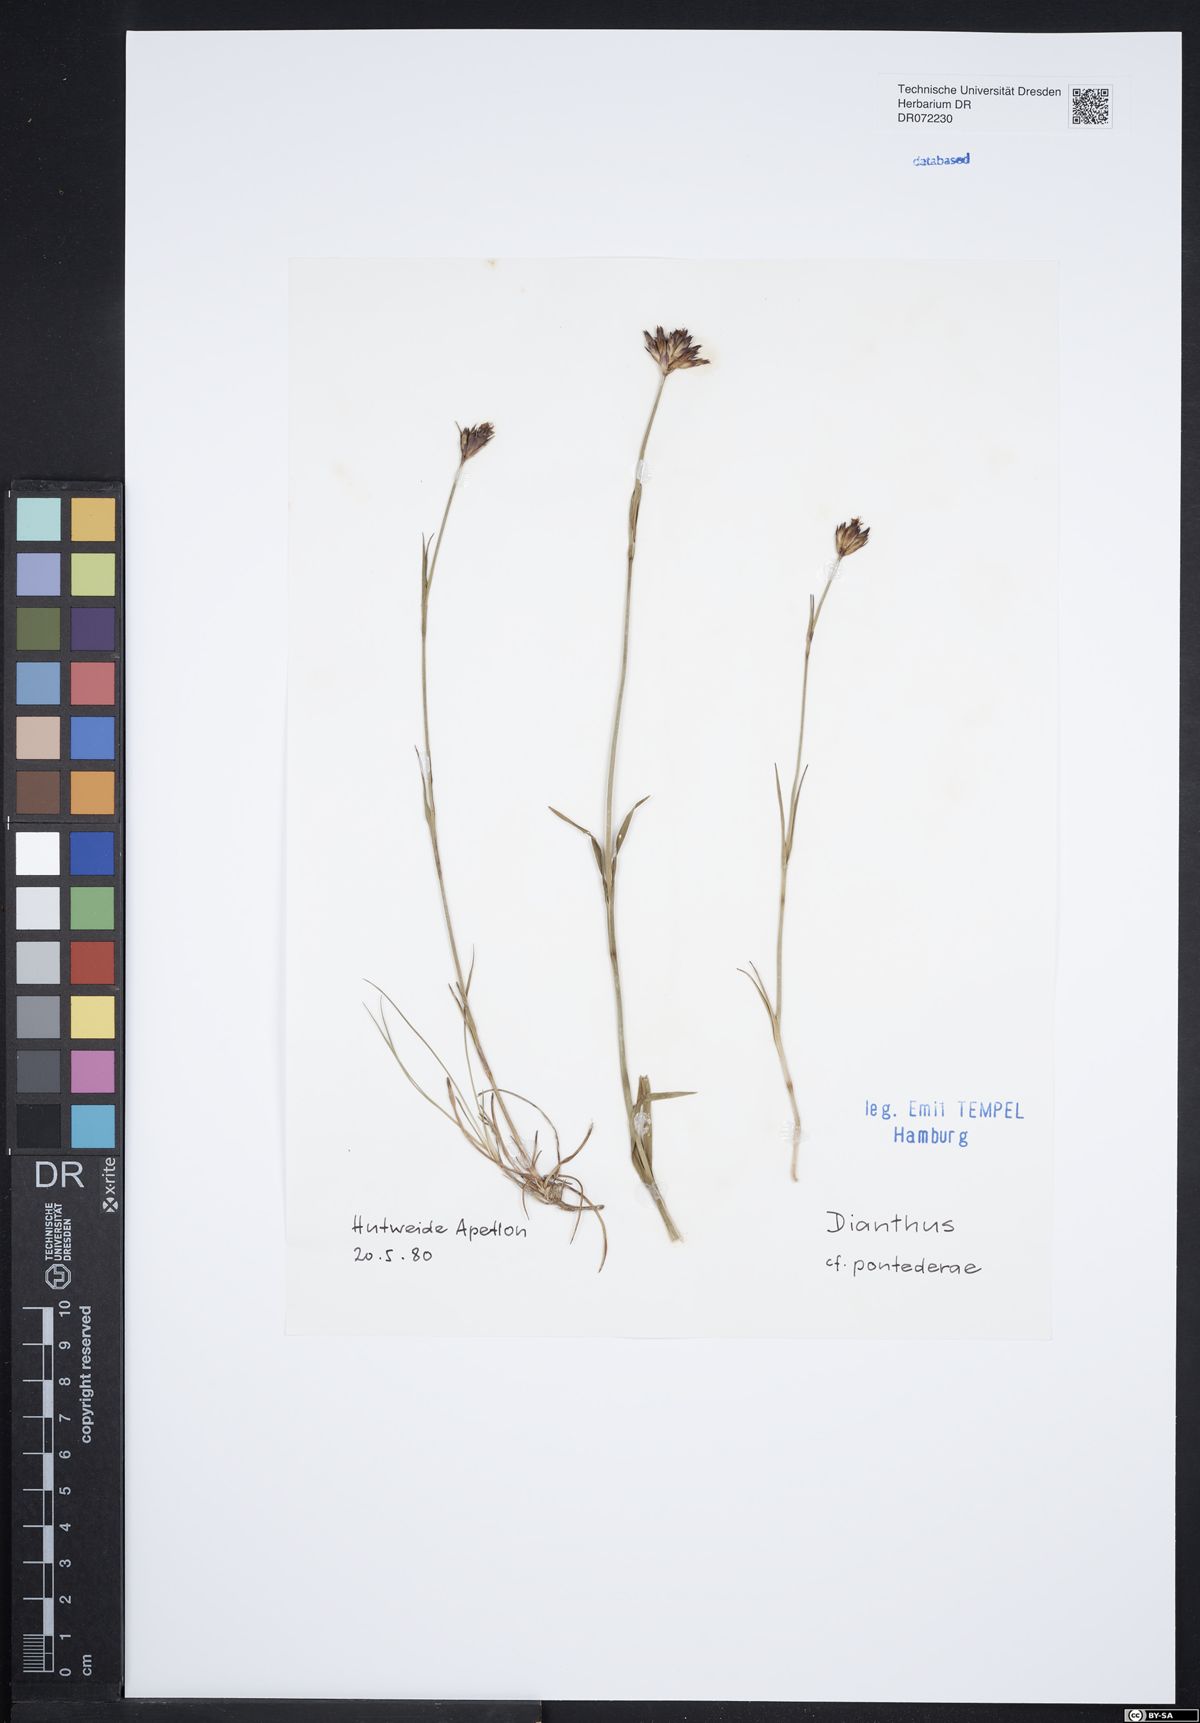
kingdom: Plantae
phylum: Tracheophyta
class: Magnoliopsida
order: Caryophyllales
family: Caryophyllaceae
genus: Dianthus
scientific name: Dianthus pontederae
